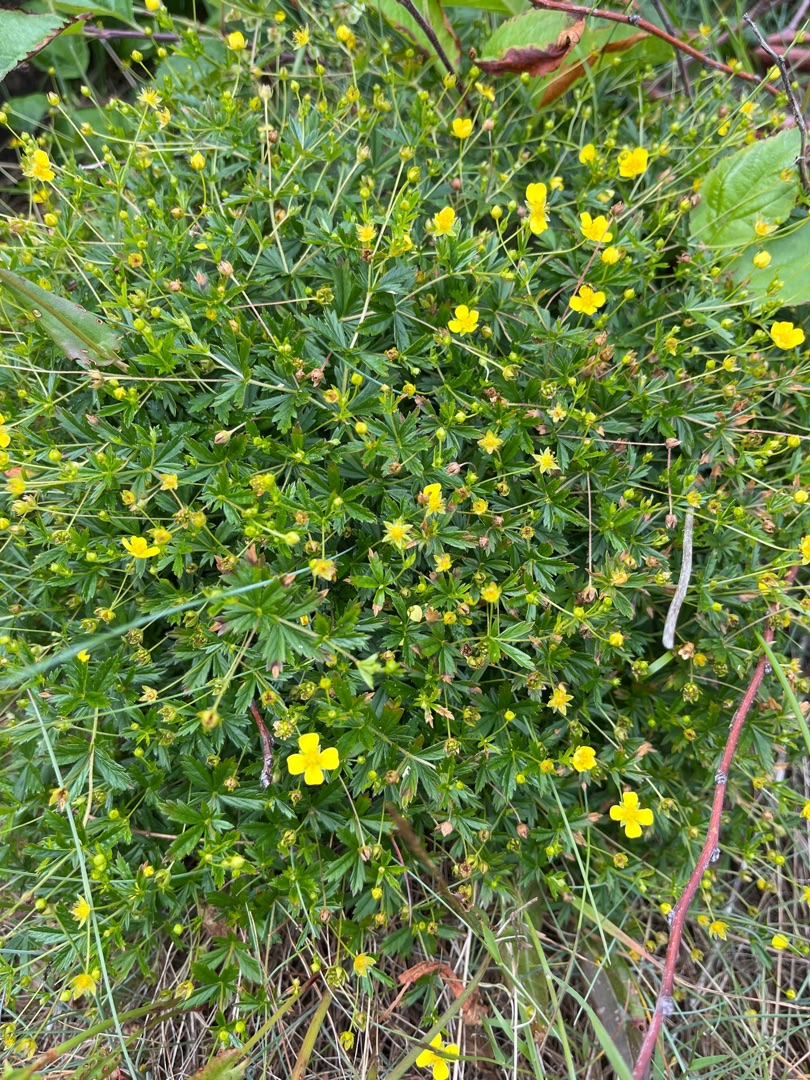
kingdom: Plantae
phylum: Tracheophyta
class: Magnoliopsida
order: Rosales
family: Rosaceae
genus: Potentilla
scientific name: Potentilla erecta
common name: Tormentil
